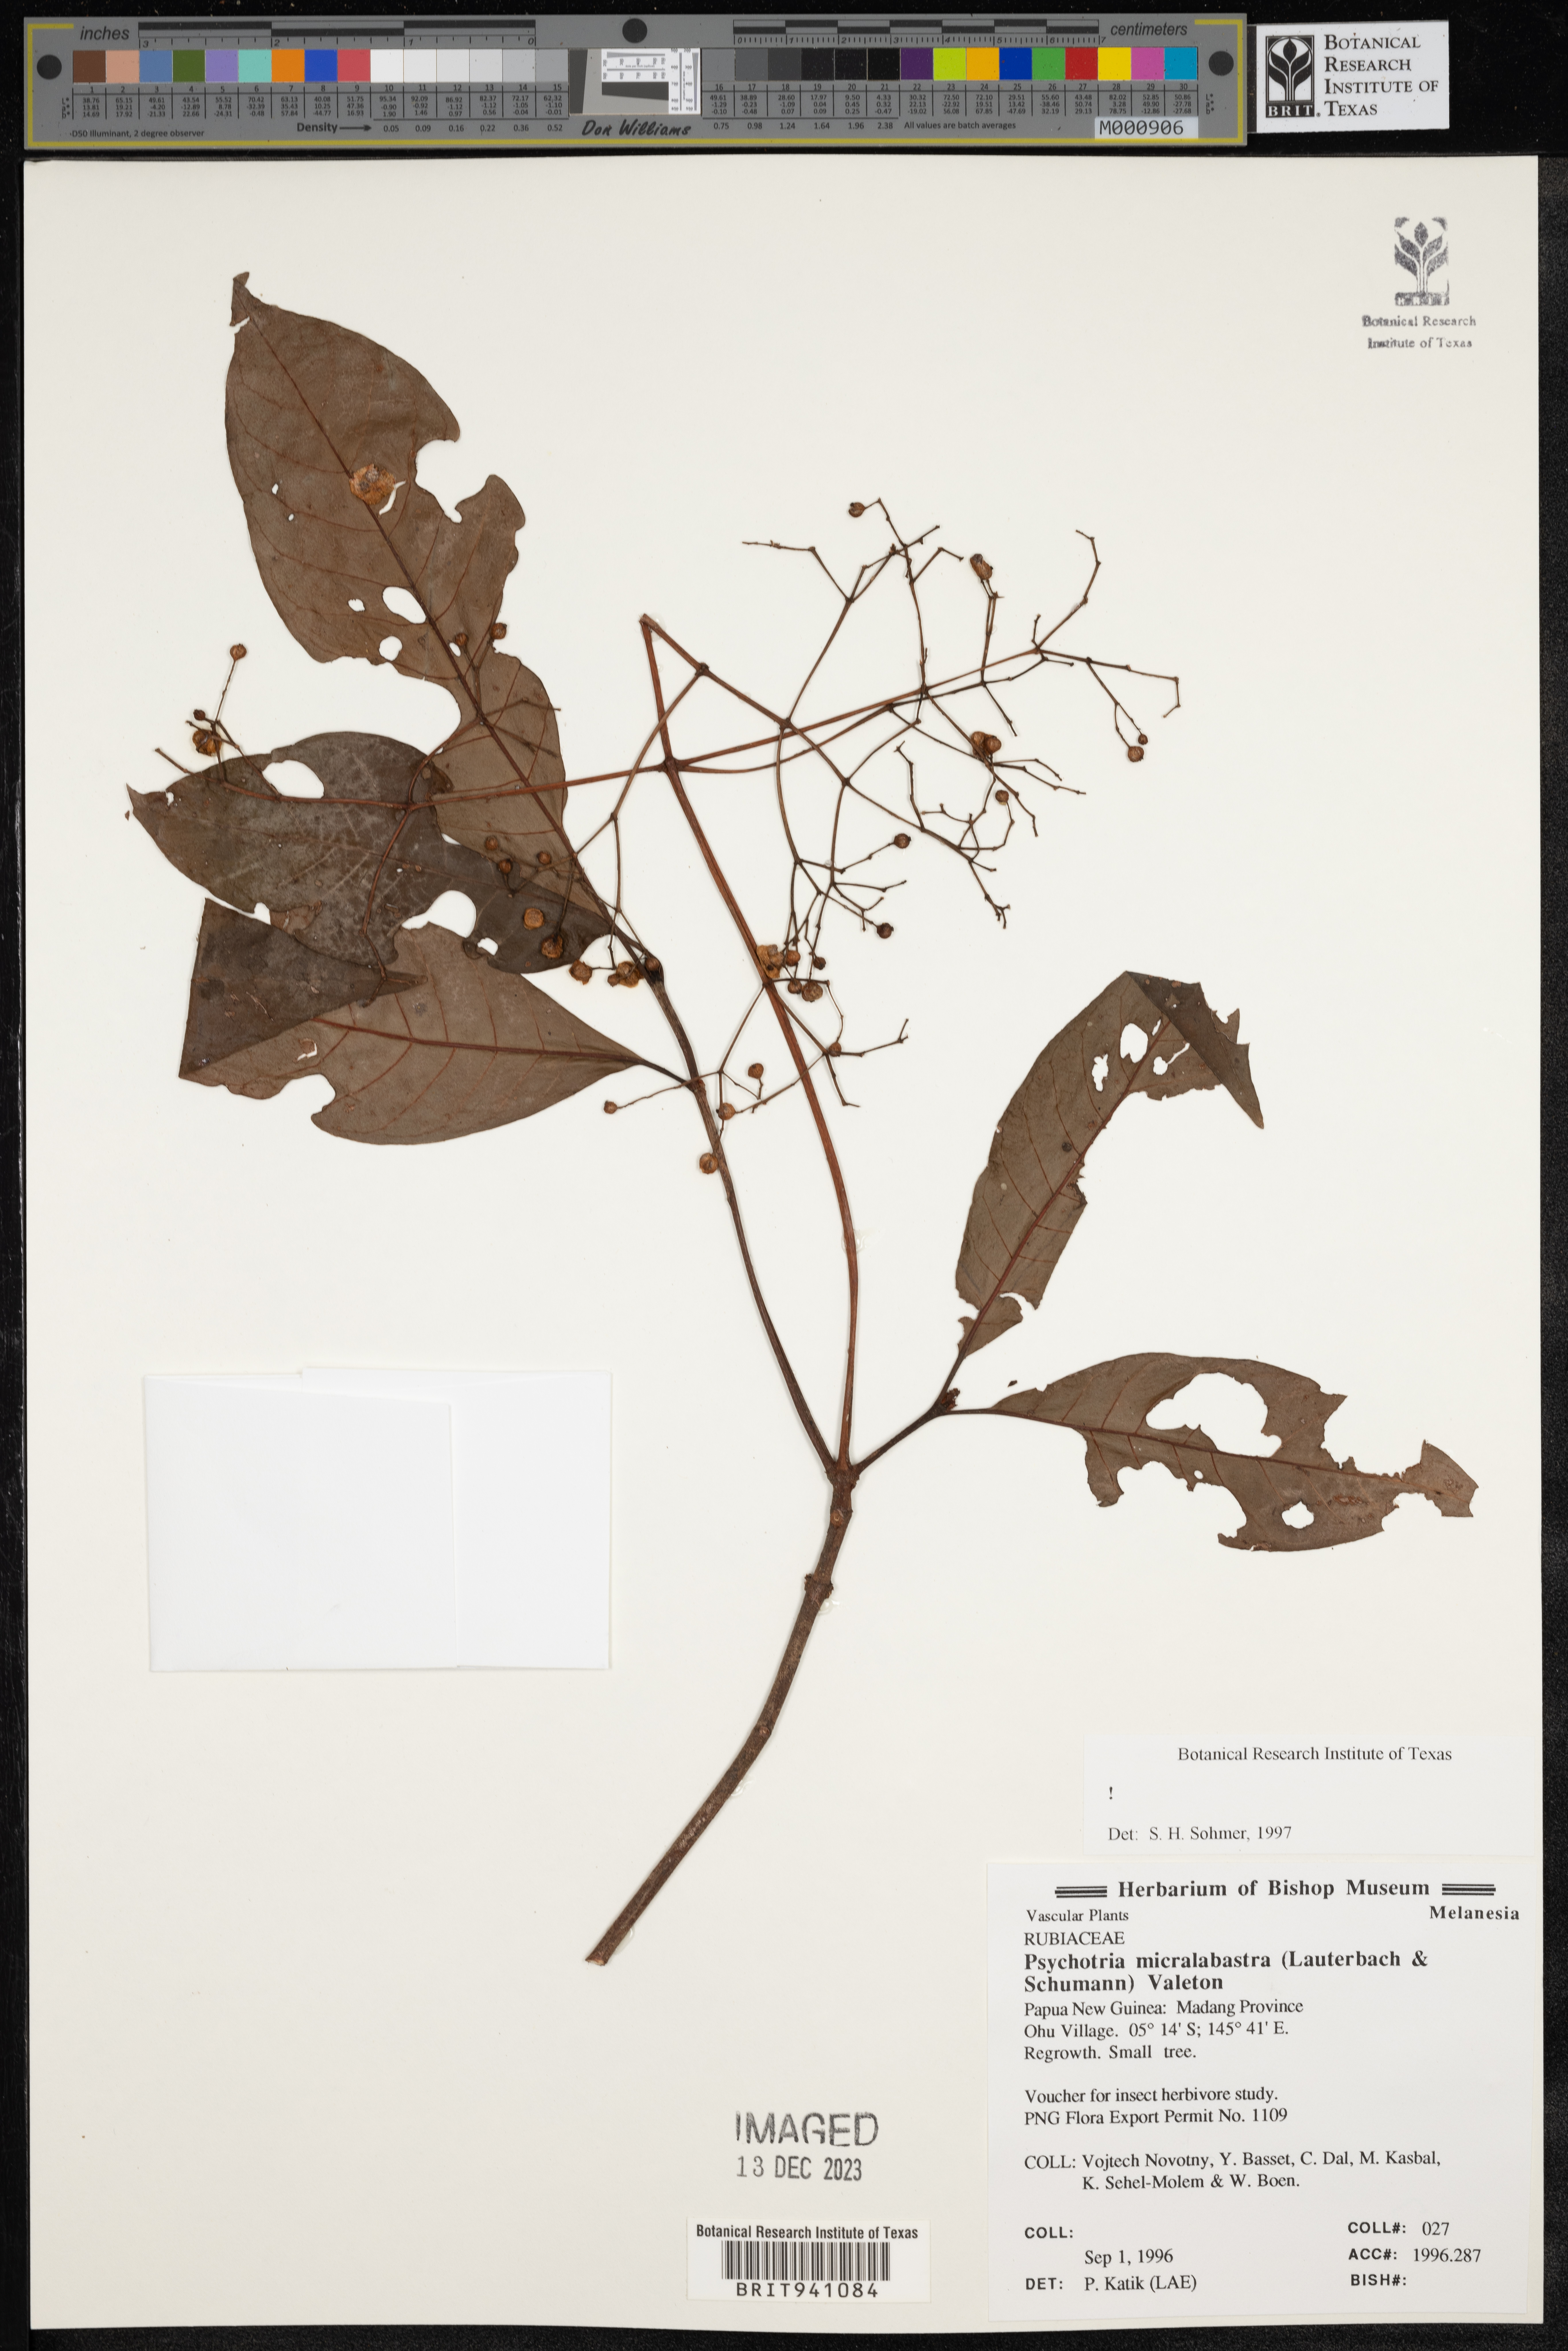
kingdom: Plantae
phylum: Tracheophyta
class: Magnoliopsida
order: Gentianales
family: Rubiaceae
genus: Psychotria
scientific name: Psychotria
